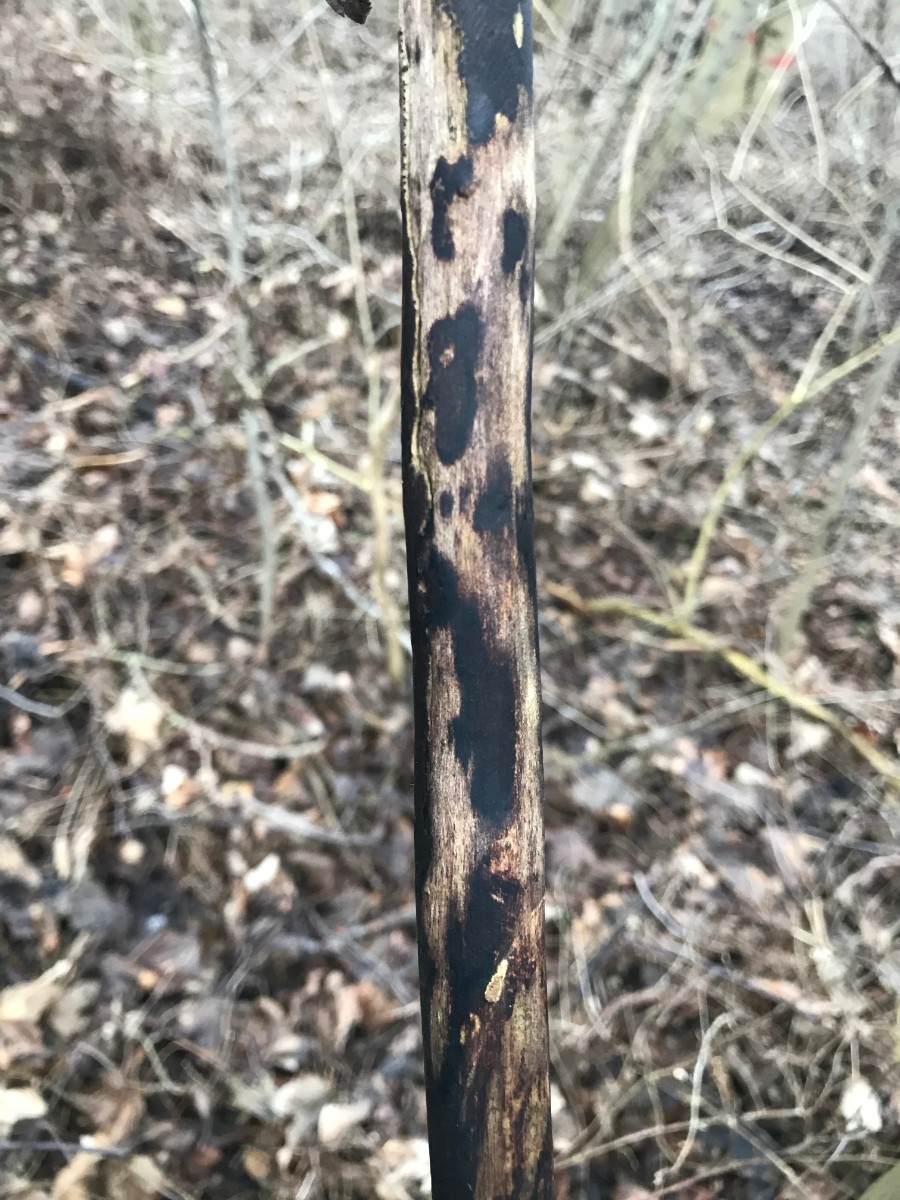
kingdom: Fungi
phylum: Ascomycota
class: Sordariomycetes
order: Xylariales
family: Diatrypaceae
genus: Eutypa
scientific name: Eutypa
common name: kulskorpe
